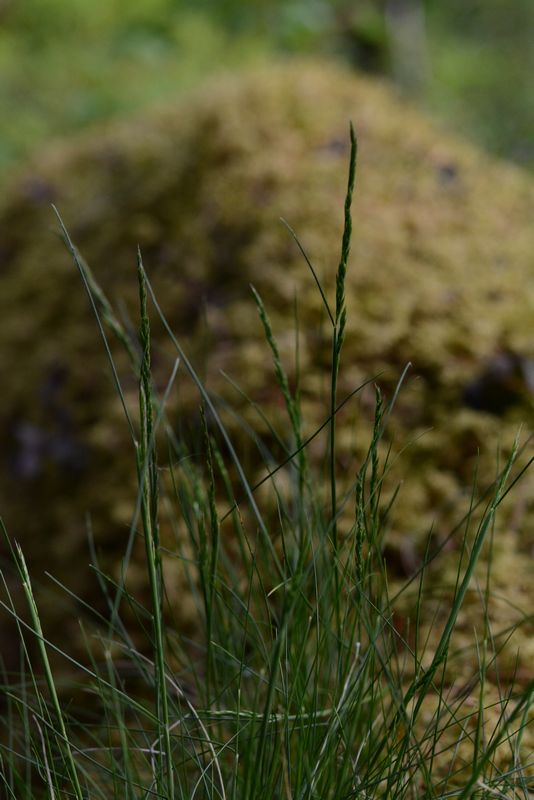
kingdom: Plantae
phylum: Tracheophyta
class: Liliopsida
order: Poales
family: Poaceae
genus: Festuca
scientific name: Festuca ovina
